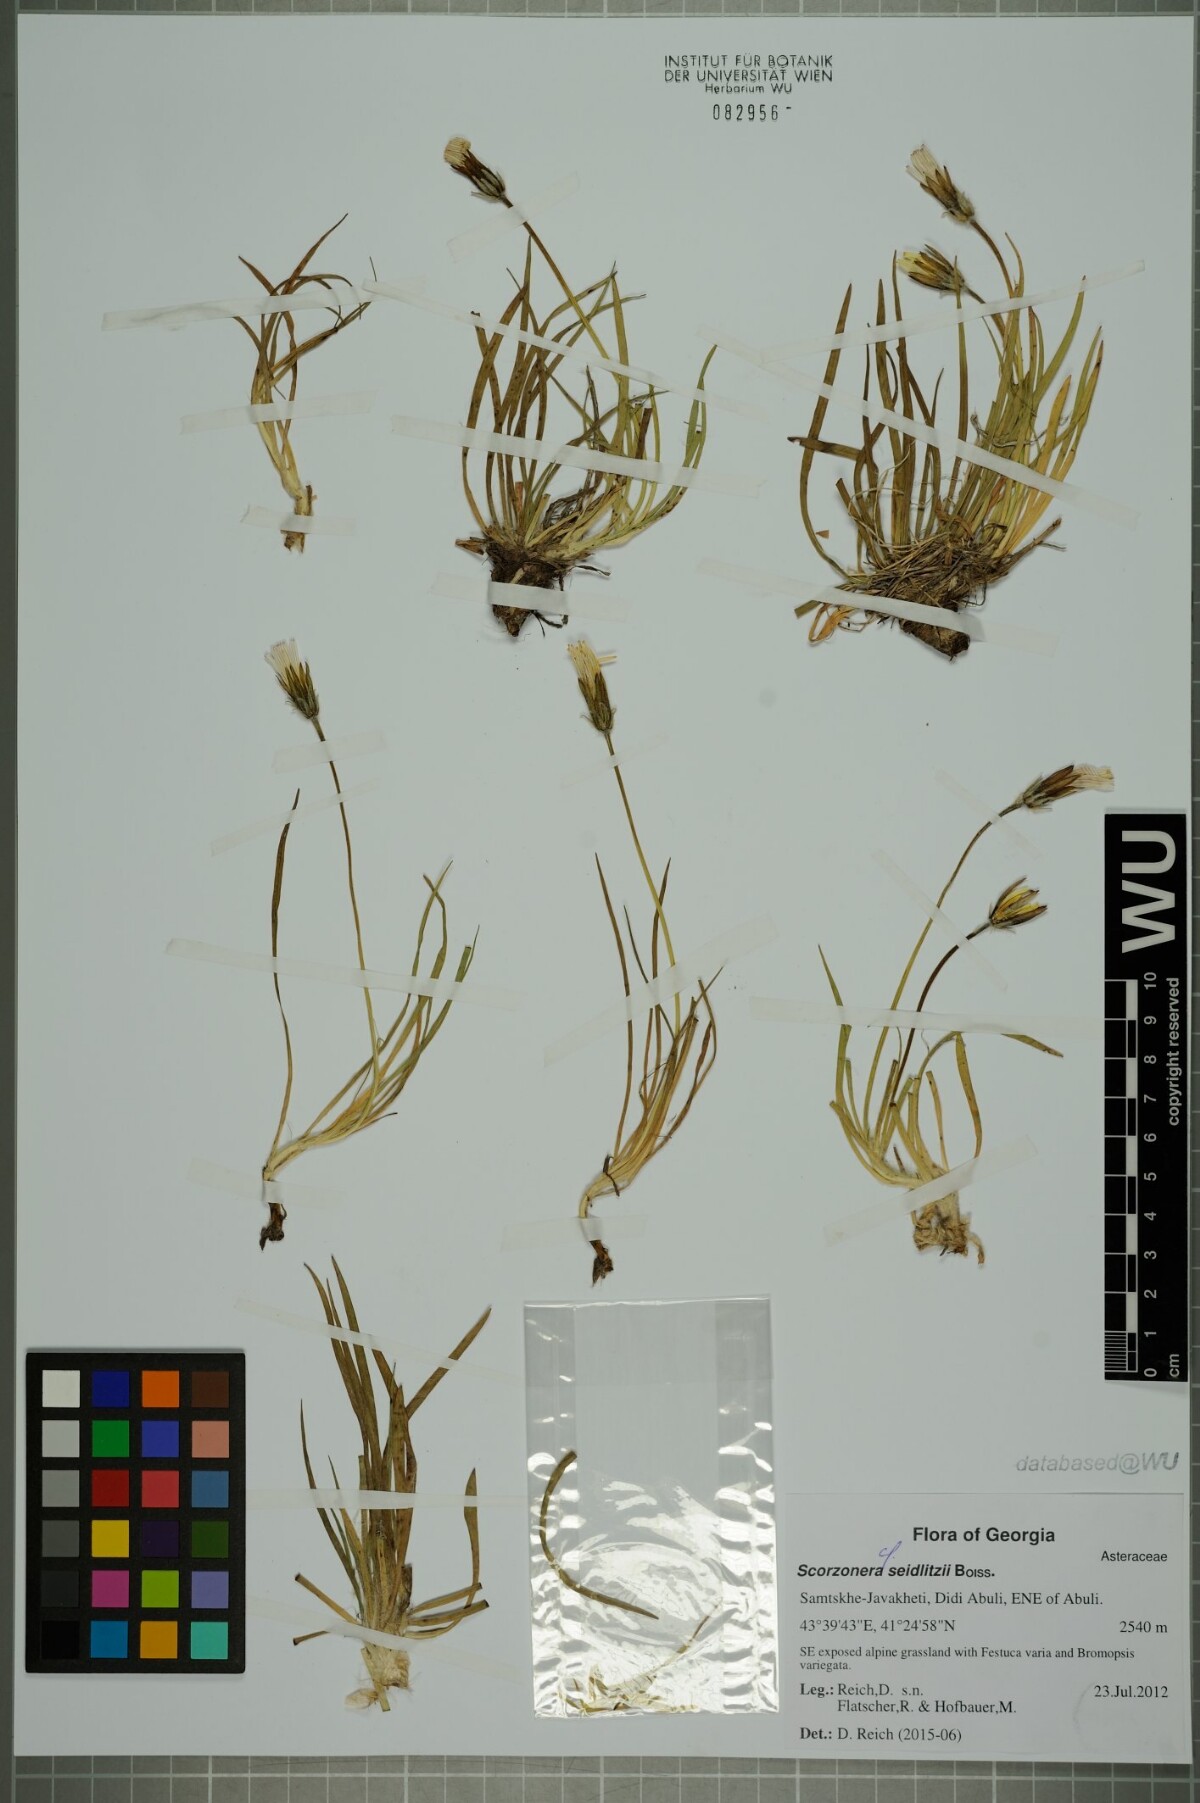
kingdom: Plantae
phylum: Tracheophyta
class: Magnoliopsida
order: Asterales
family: Asteraceae
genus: Goekyighitia
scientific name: Goekyighitia seidlitzii
